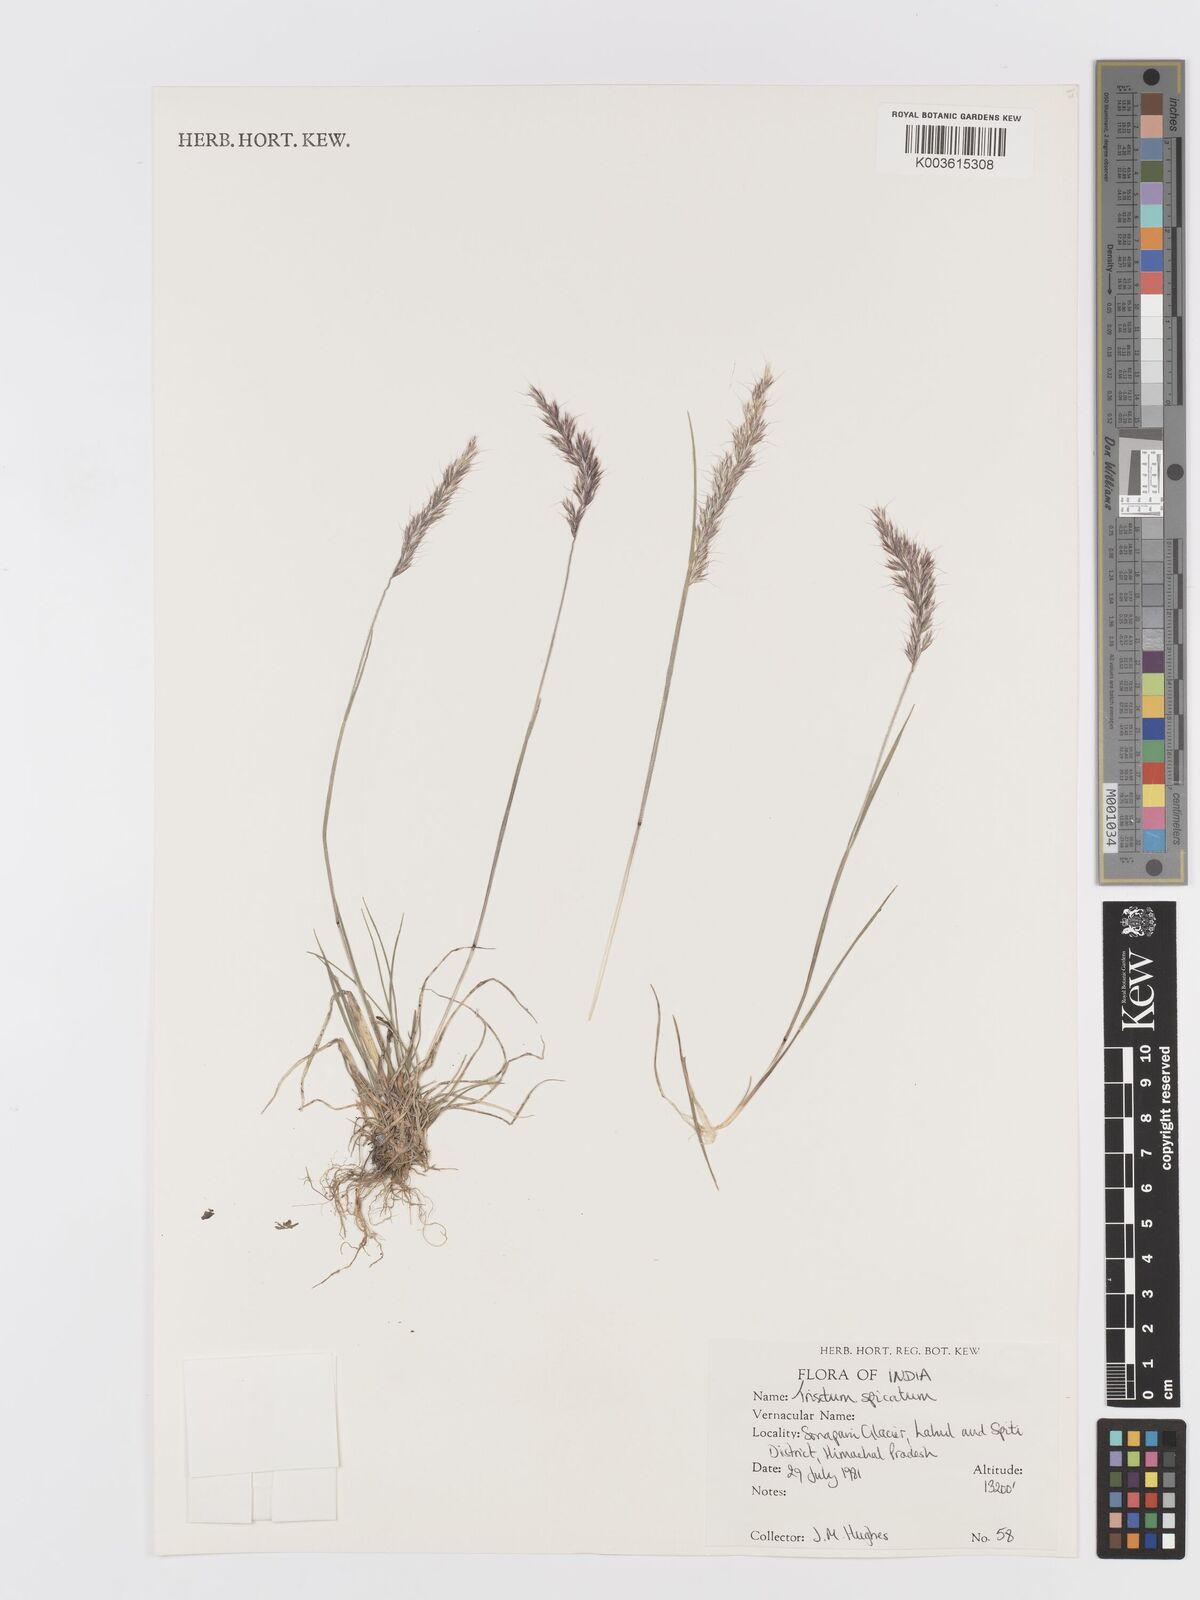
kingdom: Plantae
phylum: Tracheophyta
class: Liliopsida
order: Poales
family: Poaceae
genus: Koeleria
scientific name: Koeleria spicata
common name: Mountain trisetum
